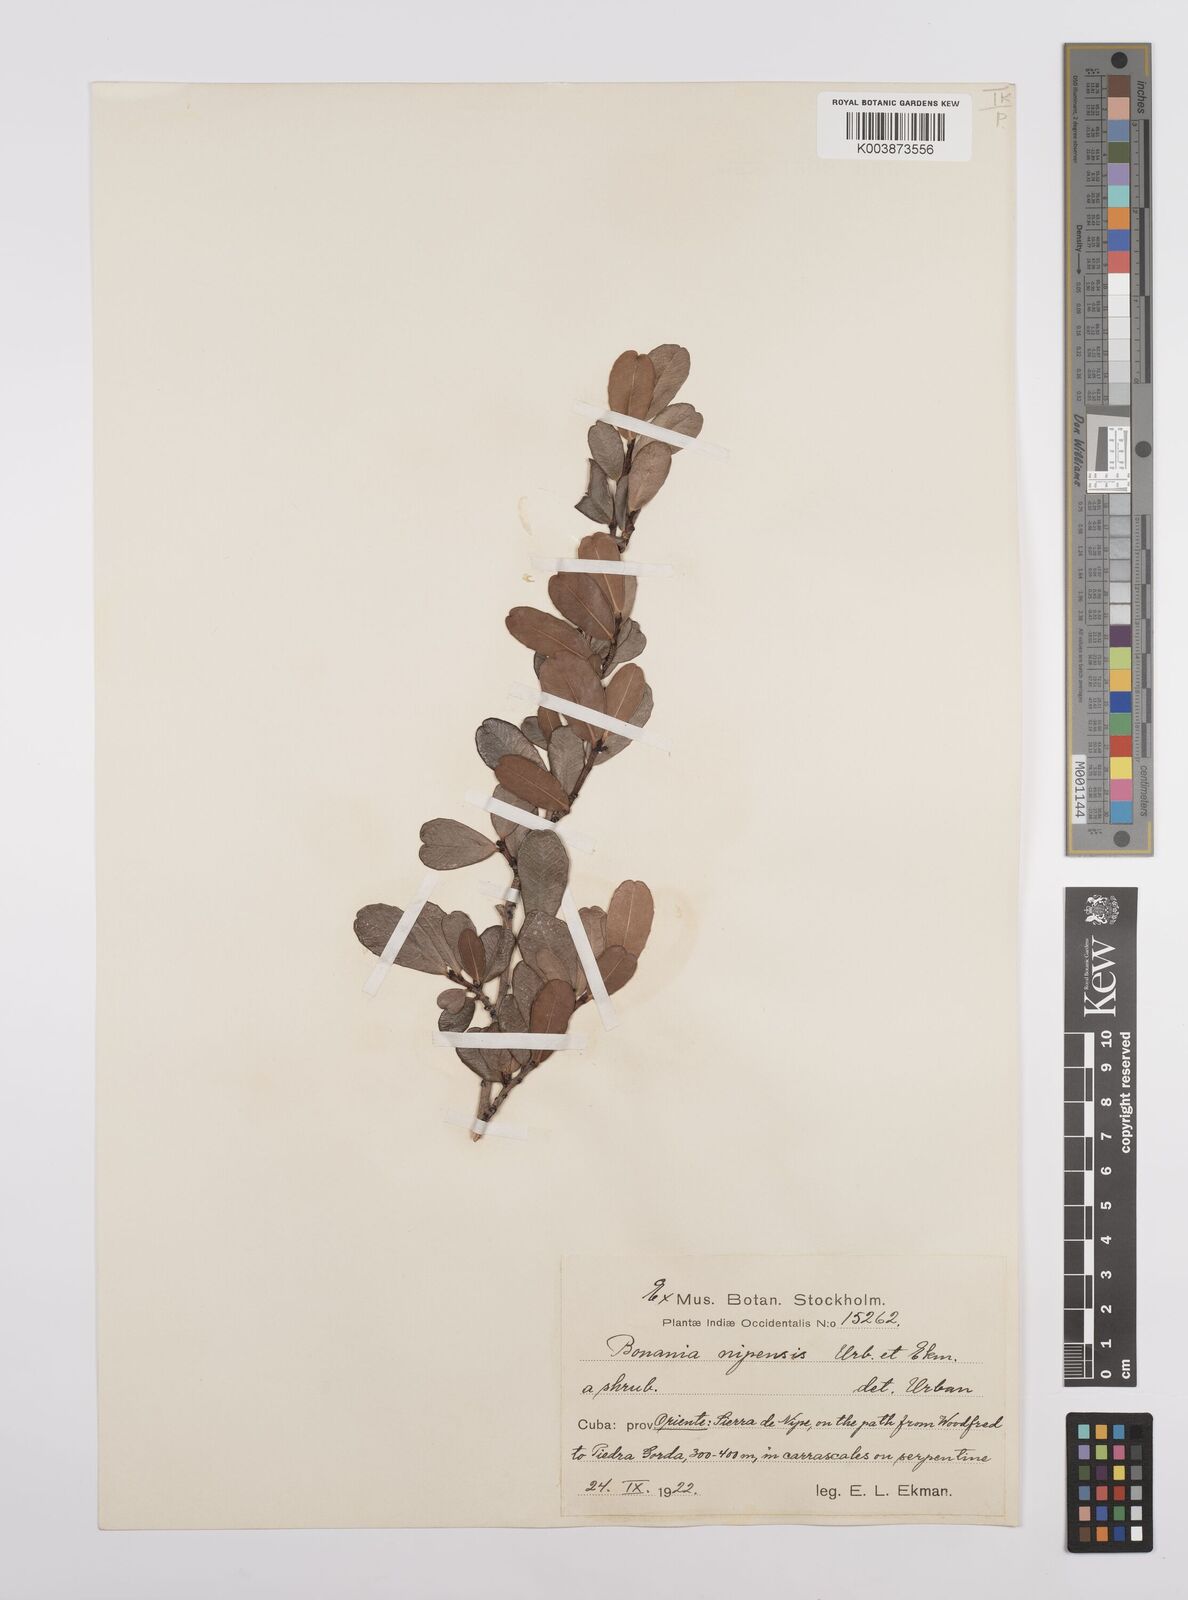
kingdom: Plantae
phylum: Tracheophyta
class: Magnoliopsida
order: Malpighiales
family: Euphorbiaceae
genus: Bonania
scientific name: Bonania emarginata
